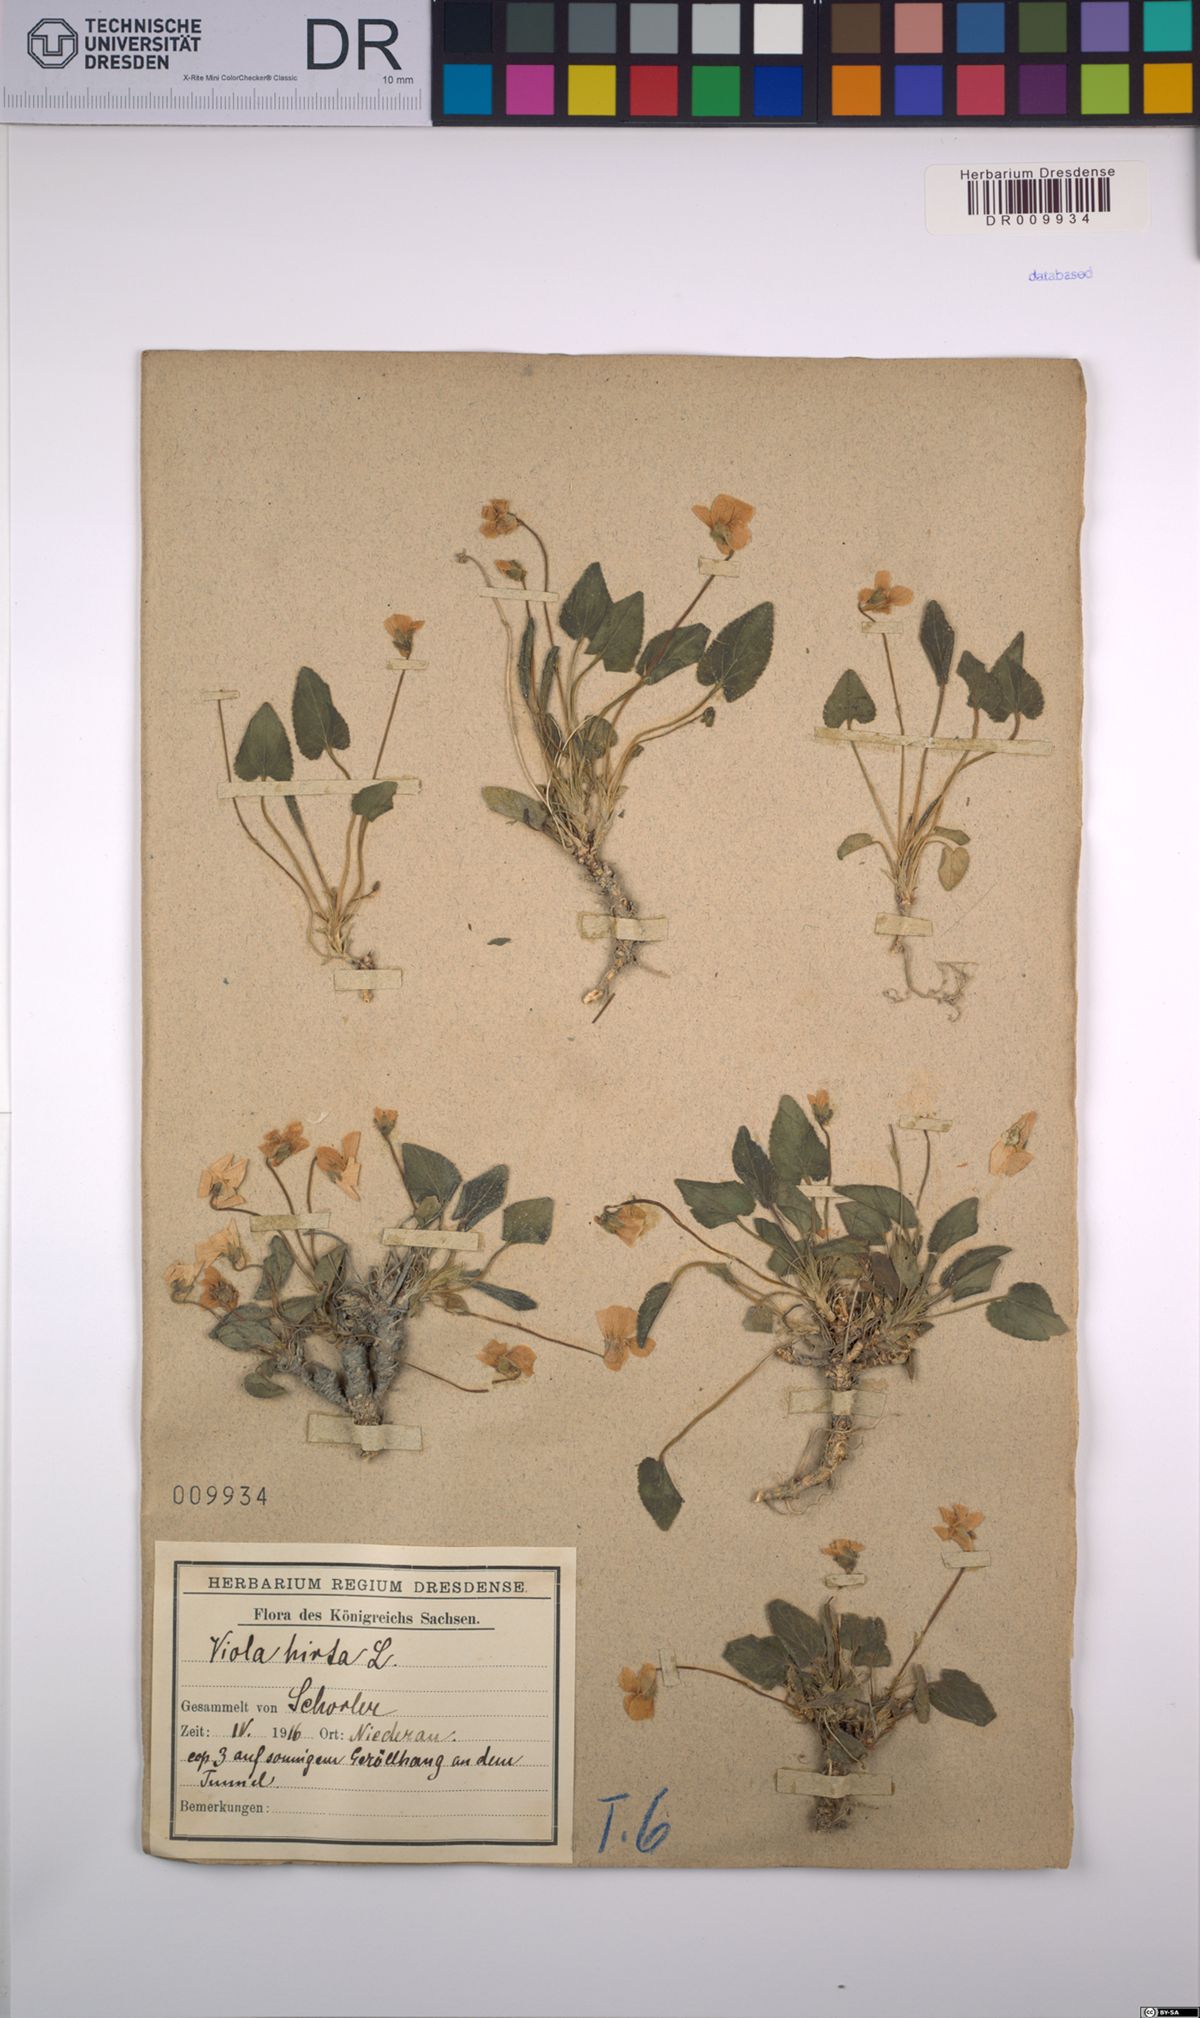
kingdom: Plantae
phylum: Tracheophyta
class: Magnoliopsida
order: Malpighiales
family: Violaceae
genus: Viola
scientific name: Viola hirta
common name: Hairy violet
